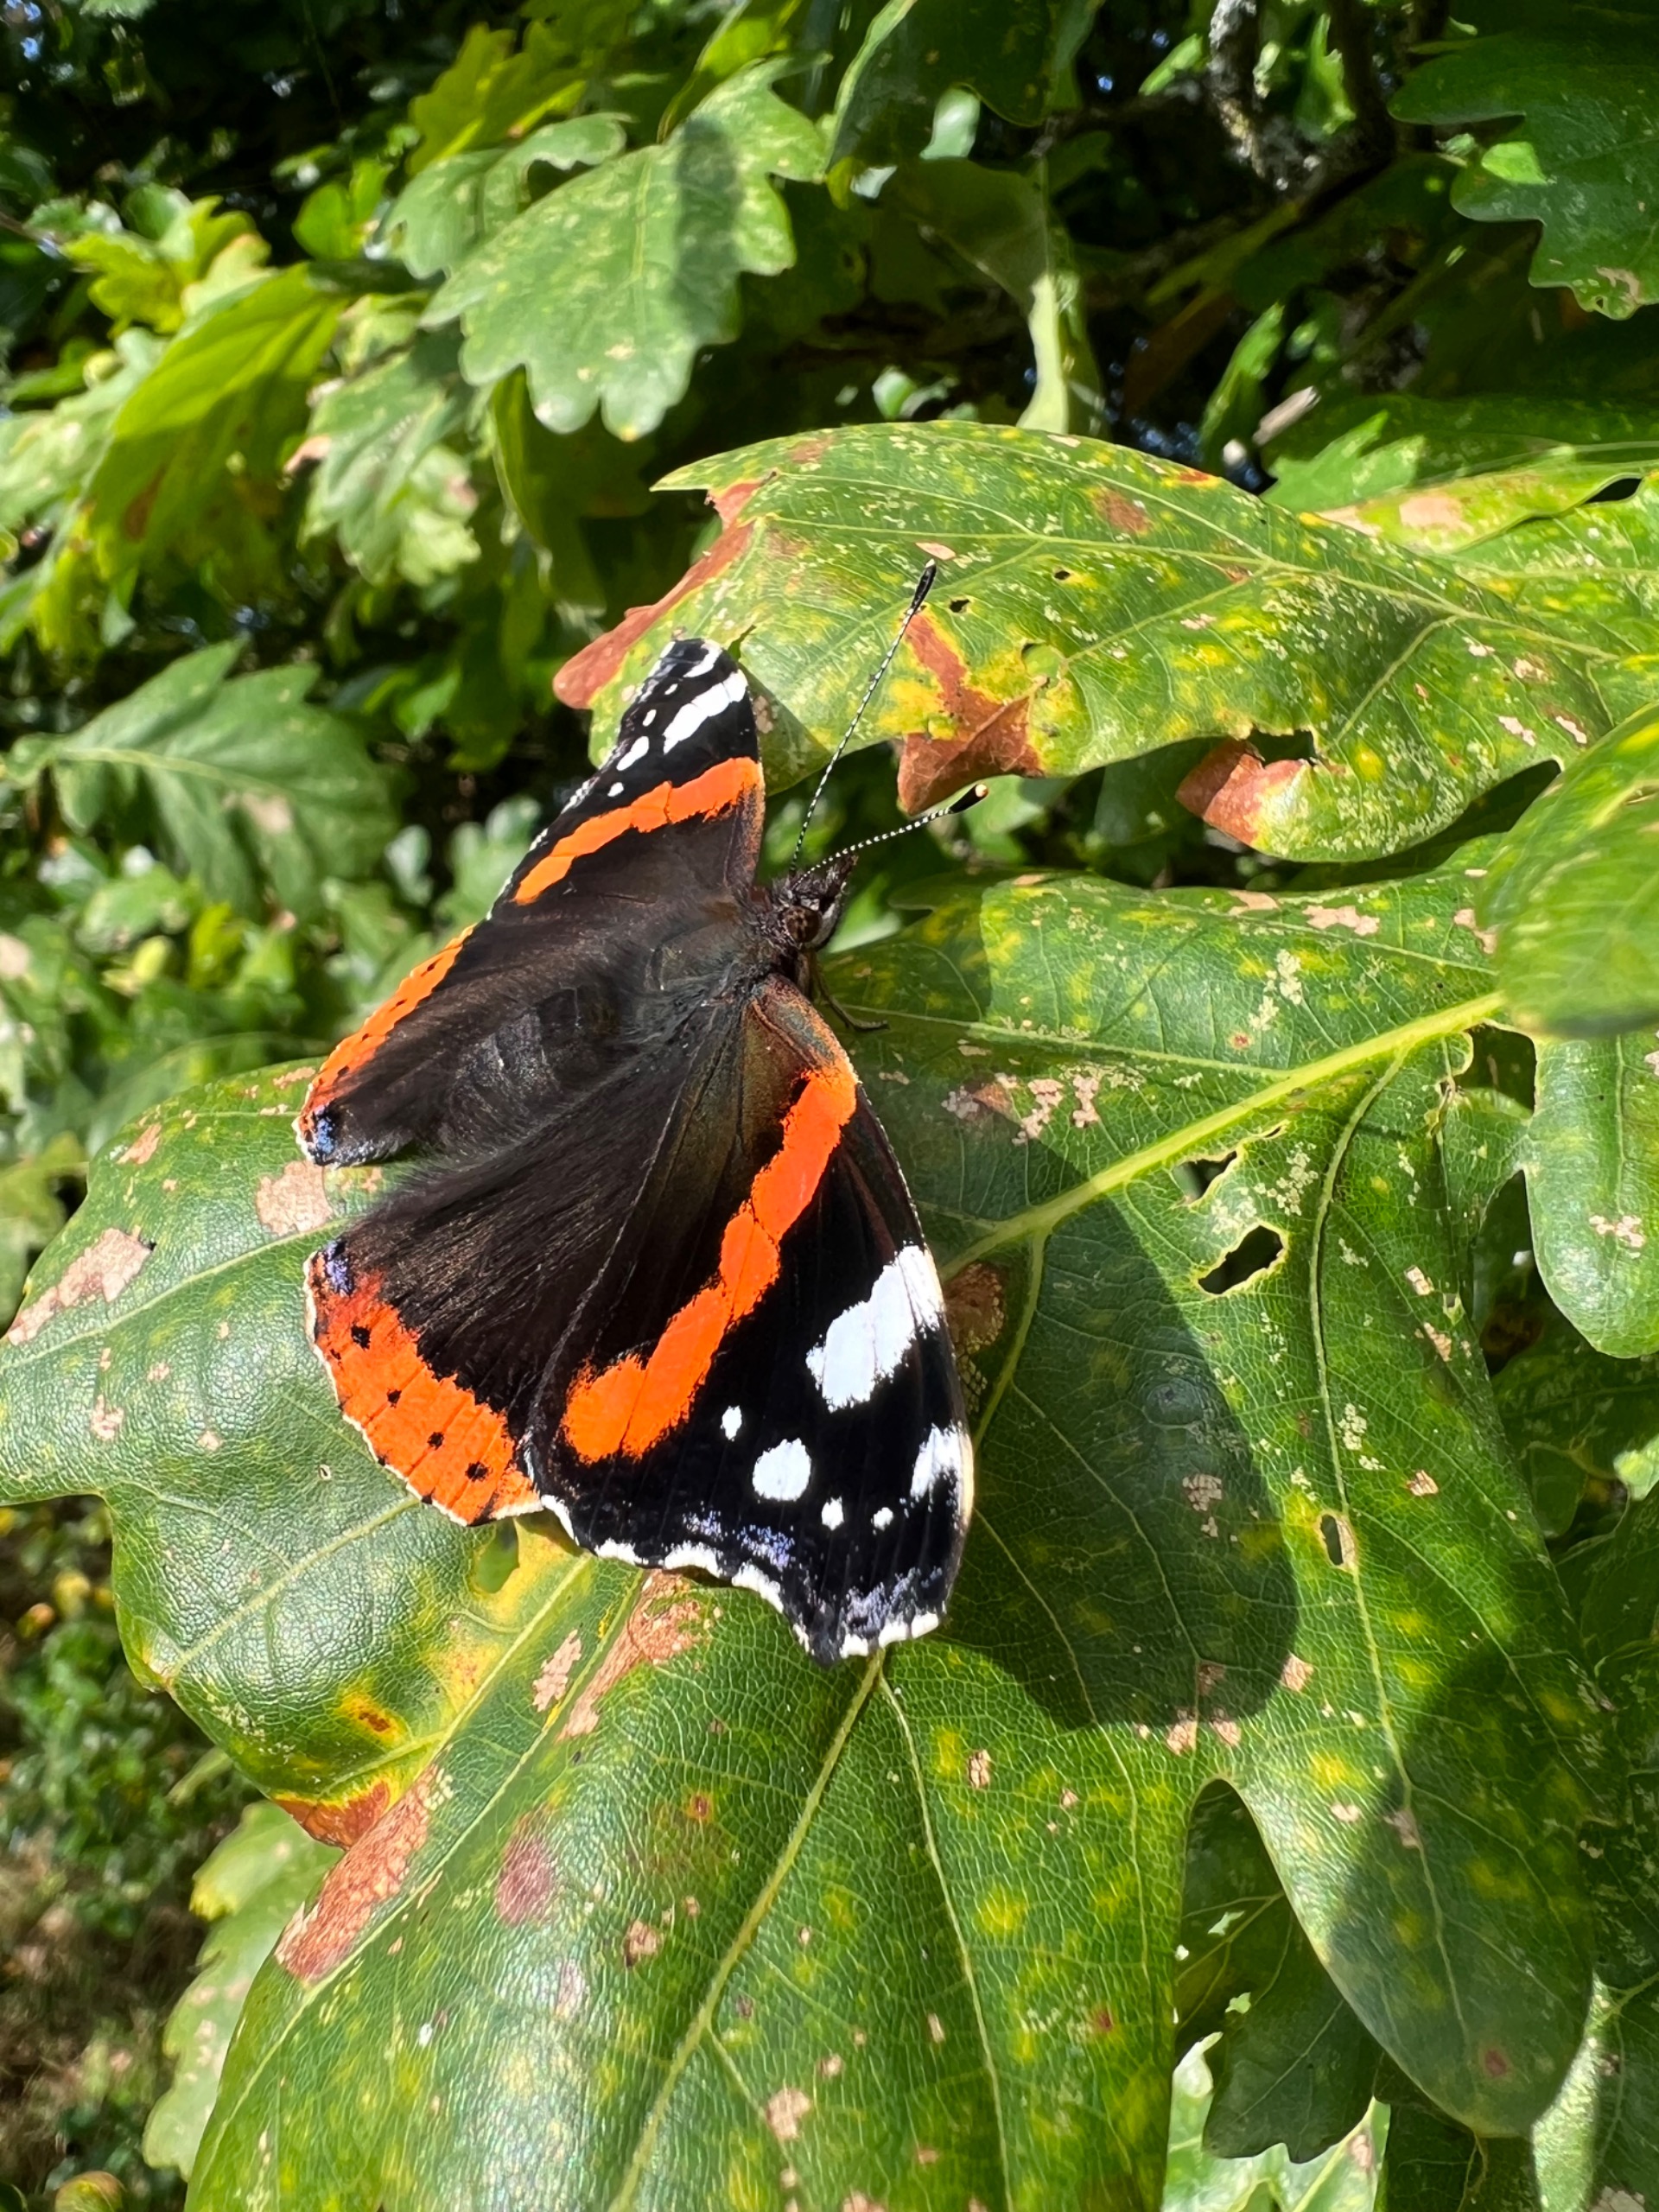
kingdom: Animalia
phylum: Arthropoda
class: Insecta
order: Lepidoptera
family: Nymphalidae
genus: Vanessa
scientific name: Vanessa atalanta
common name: Admiral
